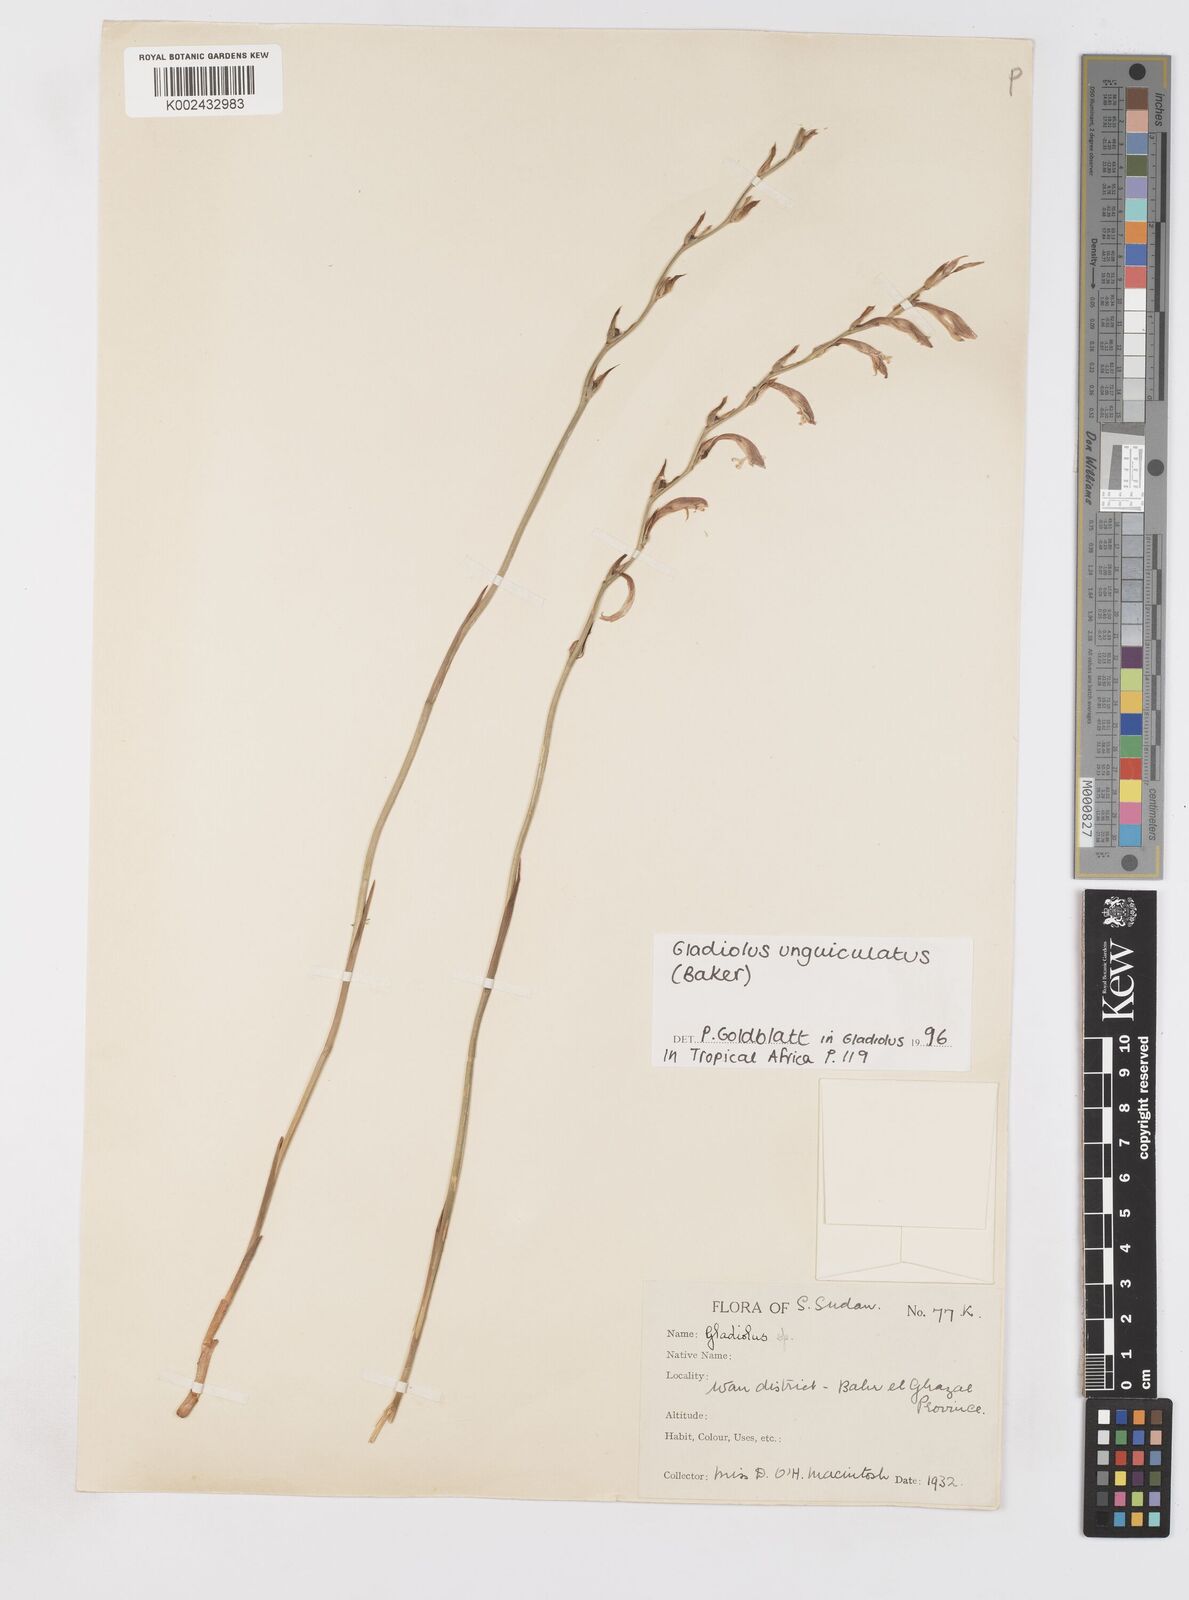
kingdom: Plantae
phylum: Tracheophyta
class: Liliopsida
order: Asparagales
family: Iridaceae
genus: Gladiolus
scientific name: Gladiolus unguiculatus
